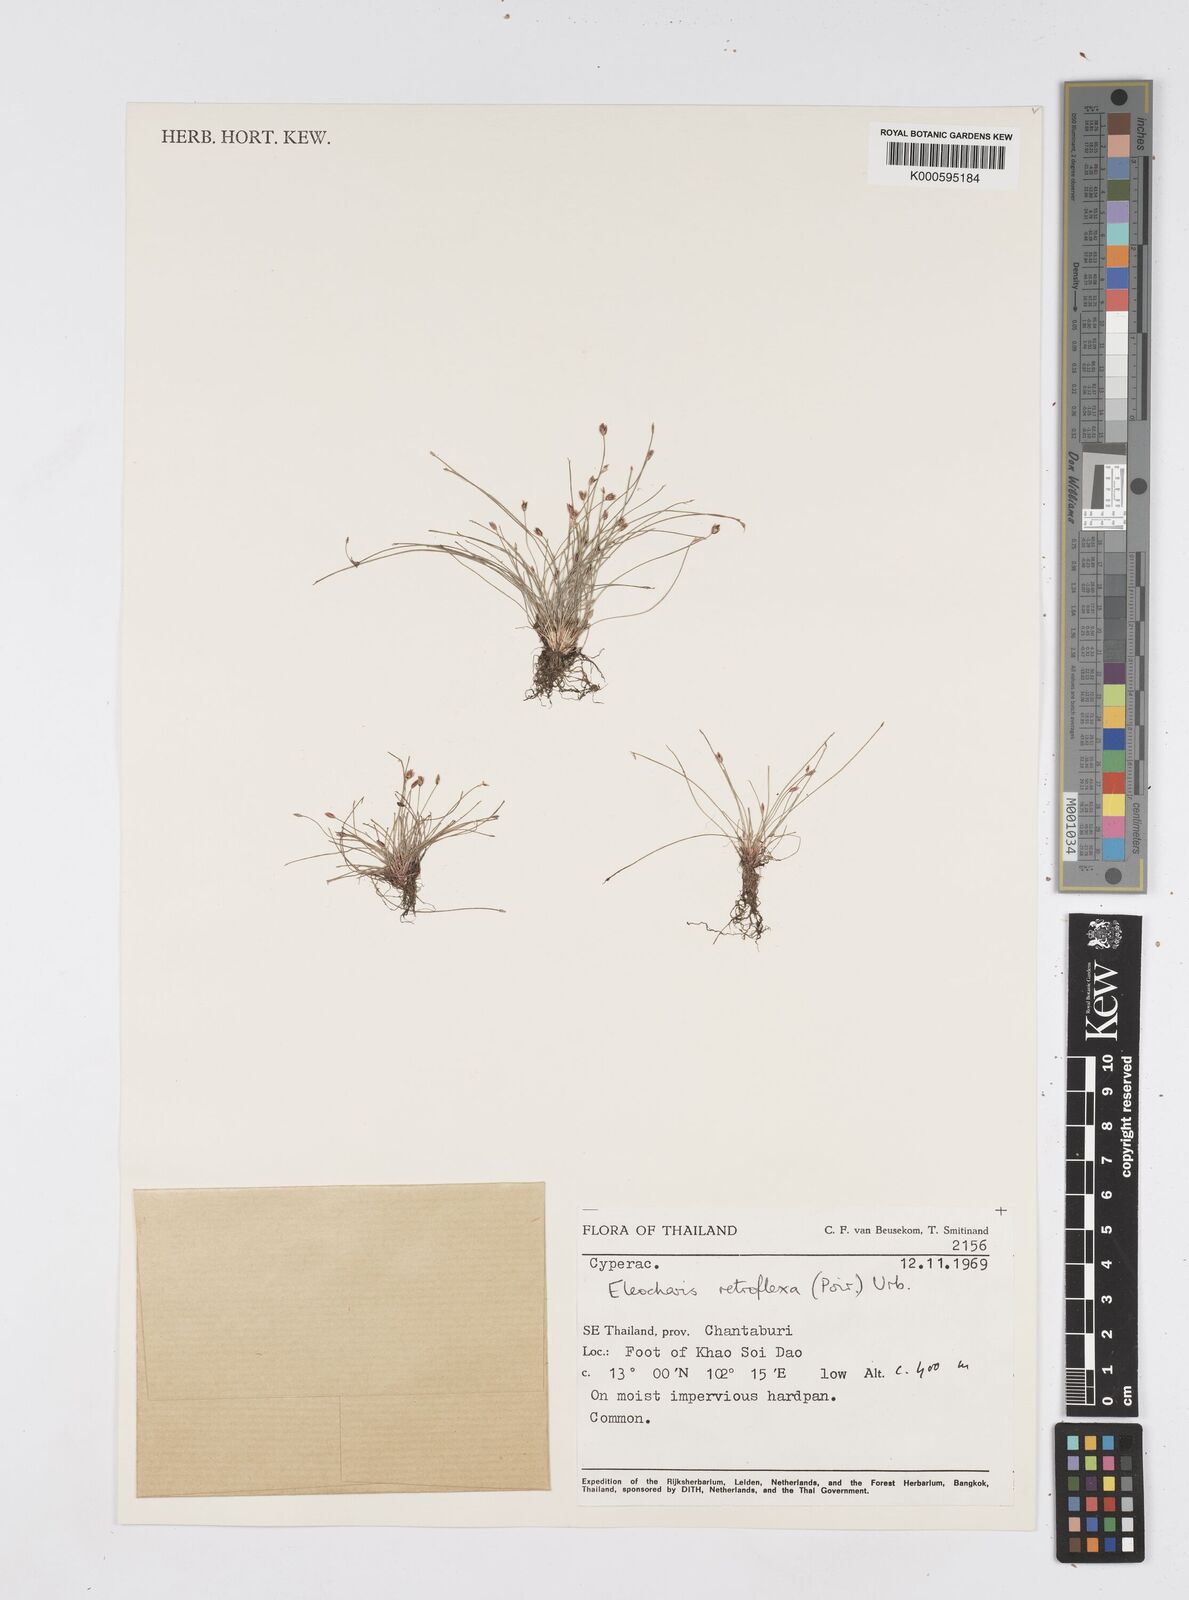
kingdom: Plantae
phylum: Tracheophyta
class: Liliopsida
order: Poales
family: Cyperaceae
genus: Eleocharis
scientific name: Eleocharis retroflexa
